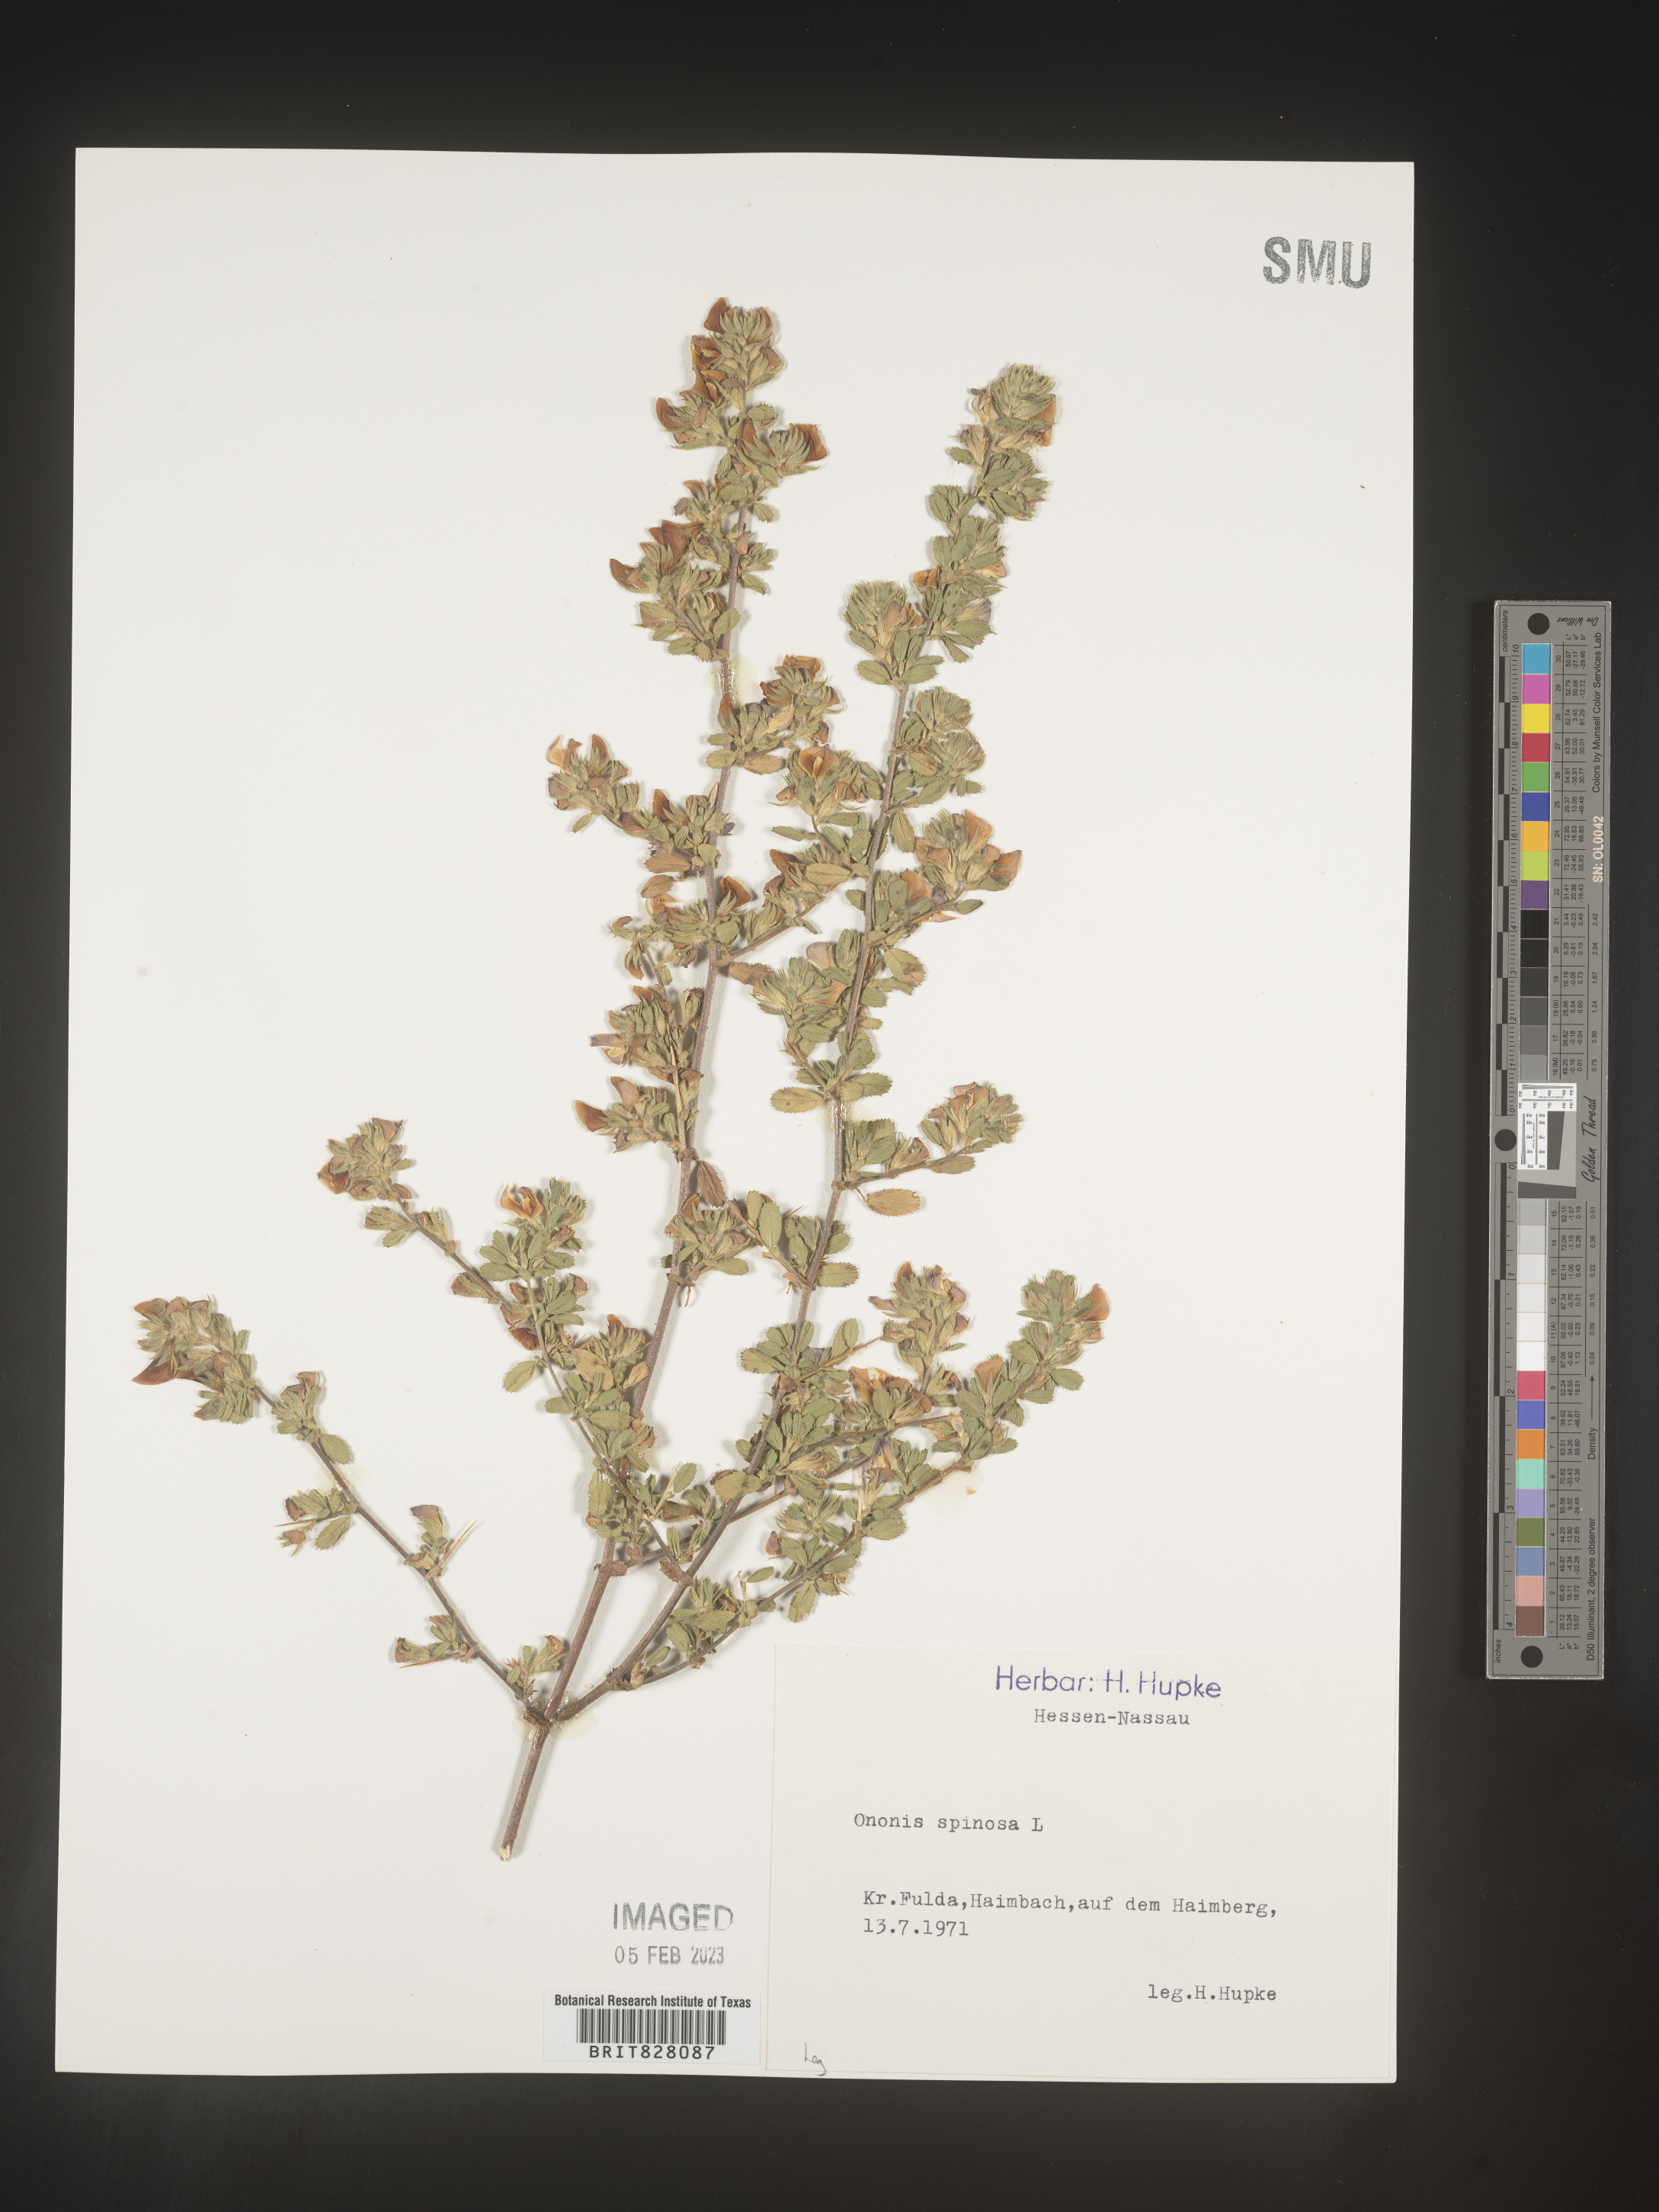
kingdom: Plantae
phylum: Tracheophyta
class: Magnoliopsida
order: Fabales
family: Fabaceae
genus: Ononis
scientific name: Ononis
